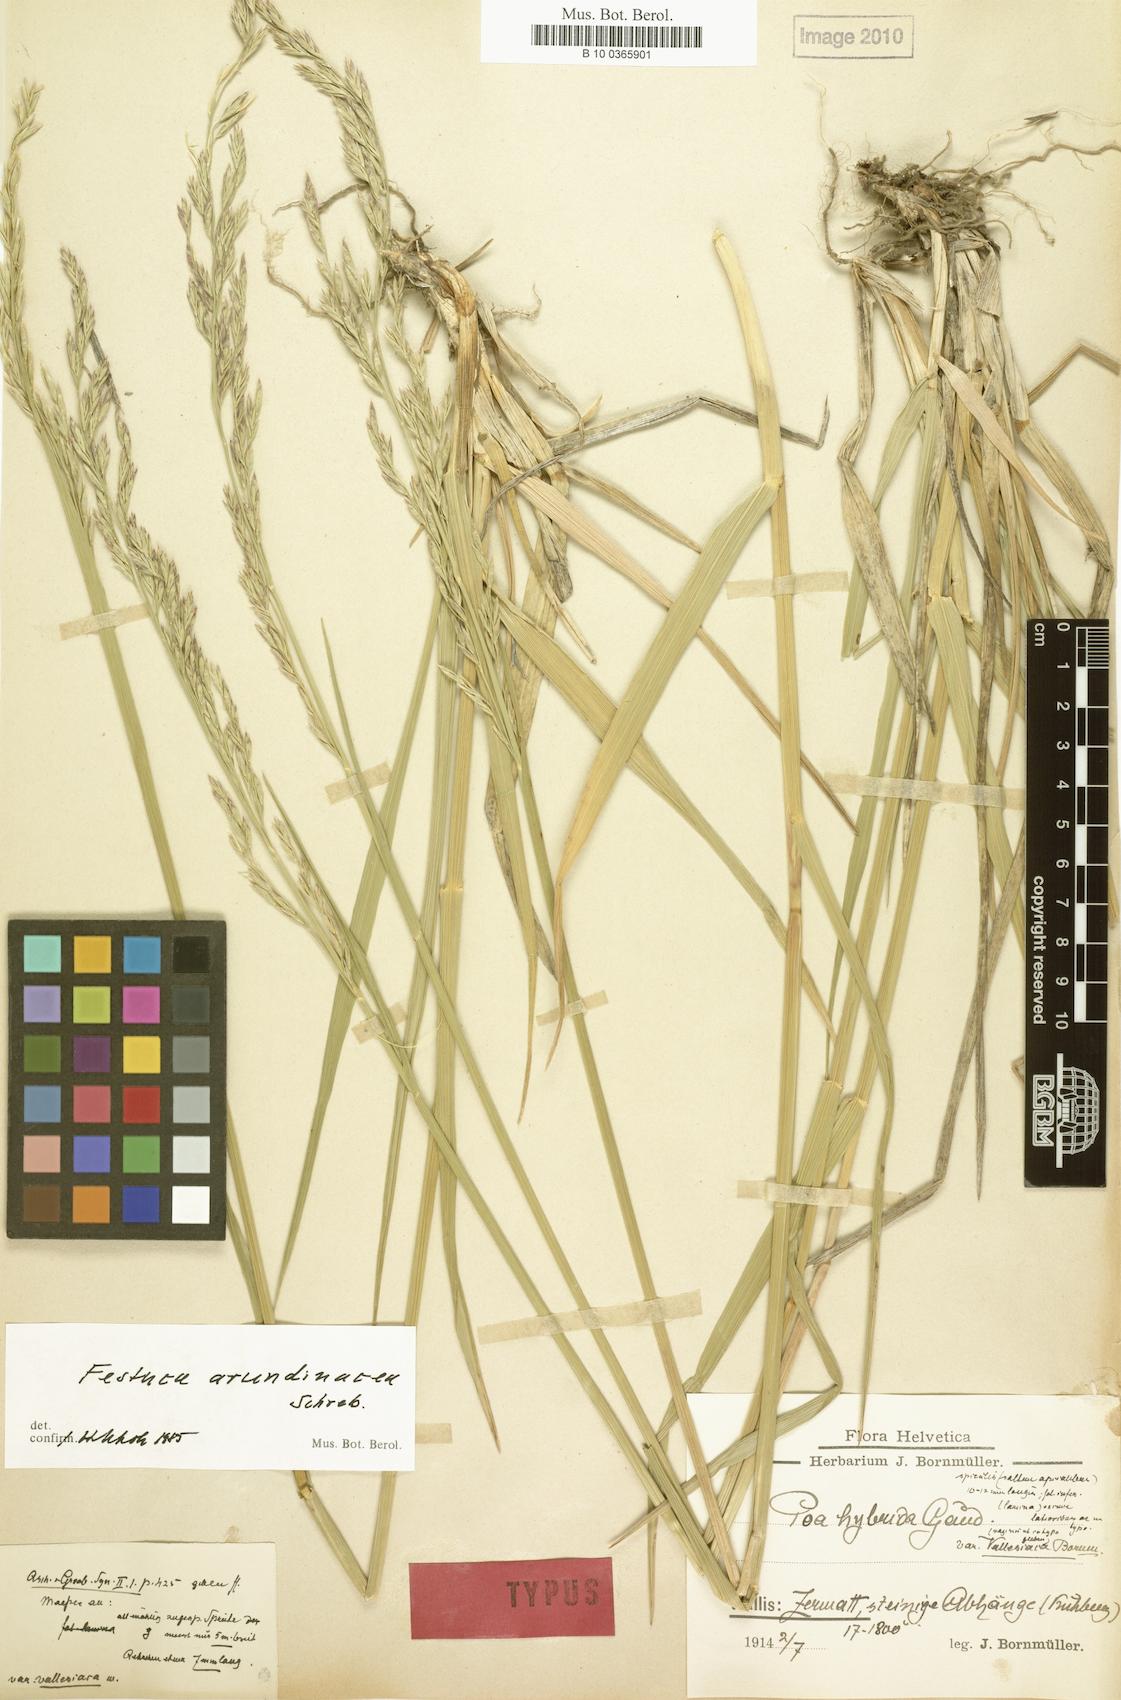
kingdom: Plantae
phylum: Tracheophyta
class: Liliopsida
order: Poales
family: Poaceae
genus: Lolium
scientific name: Lolium arundinaceum
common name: Reed fescue
